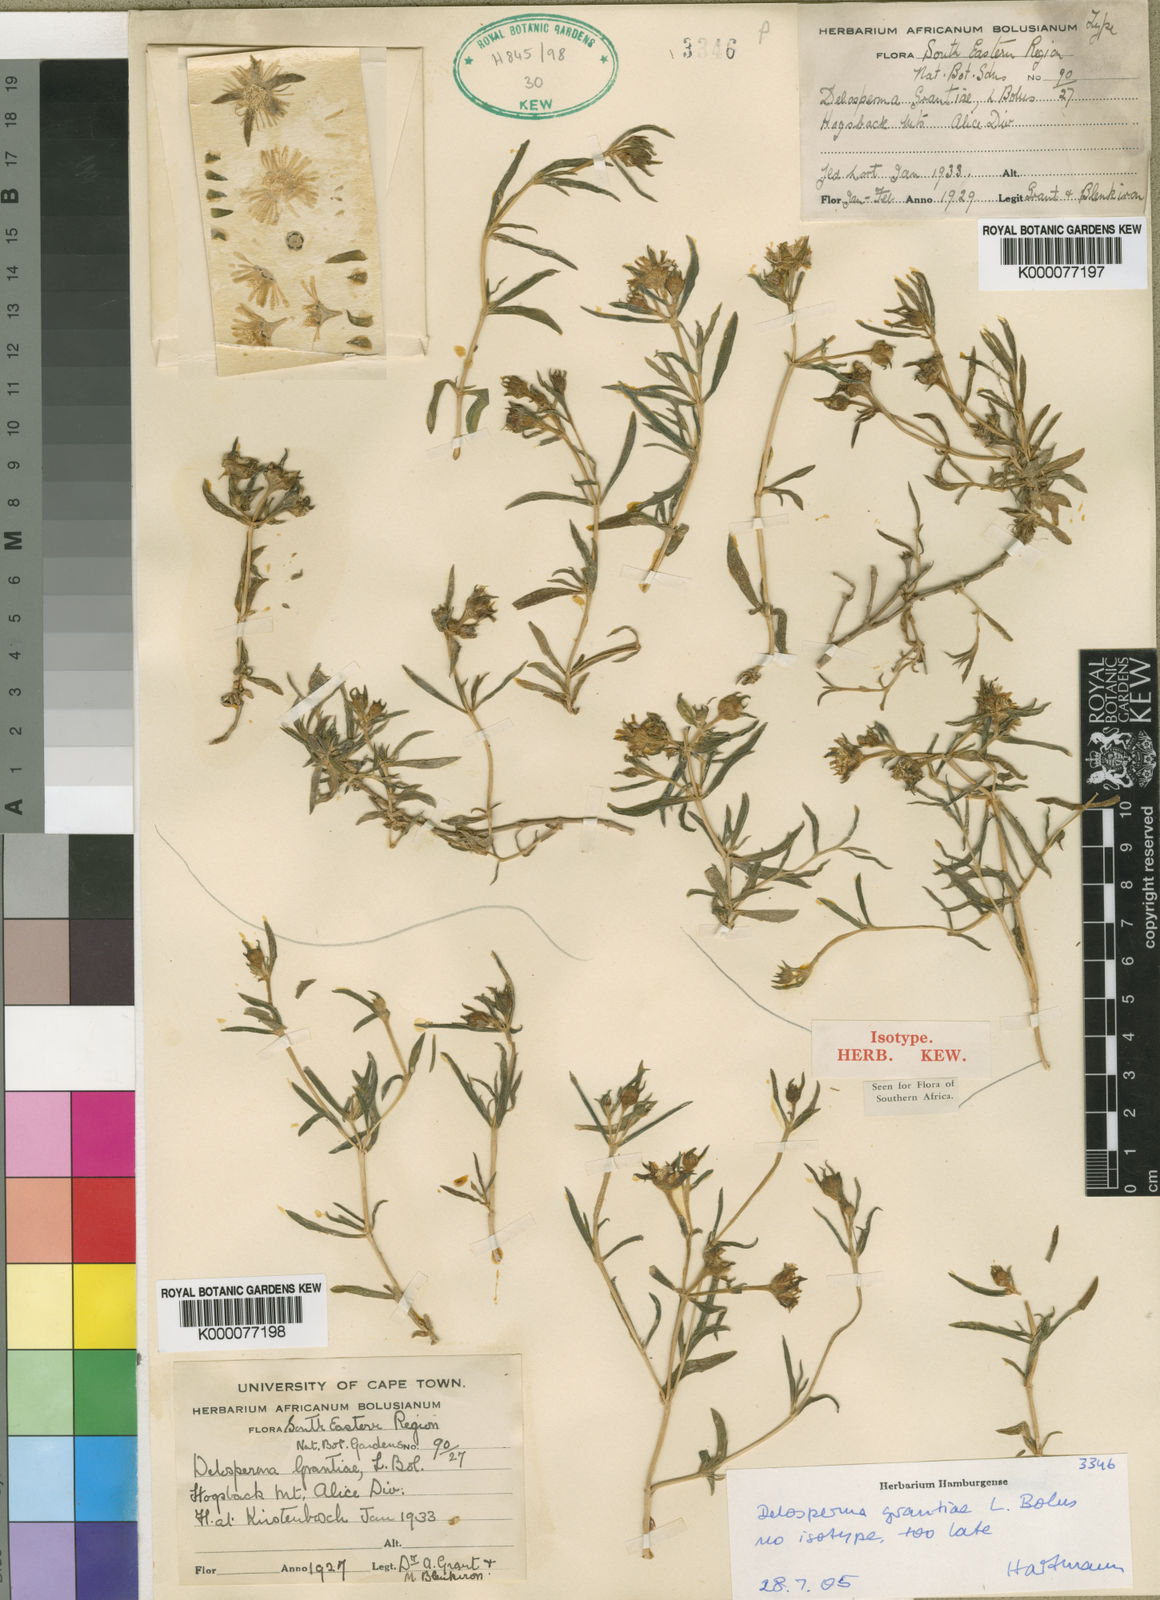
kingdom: Plantae
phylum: Tracheophyta
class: Magnoliopsida
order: Caryophyllales
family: Aizoaceae
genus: Delosperma
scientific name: Delosperma grantiae
